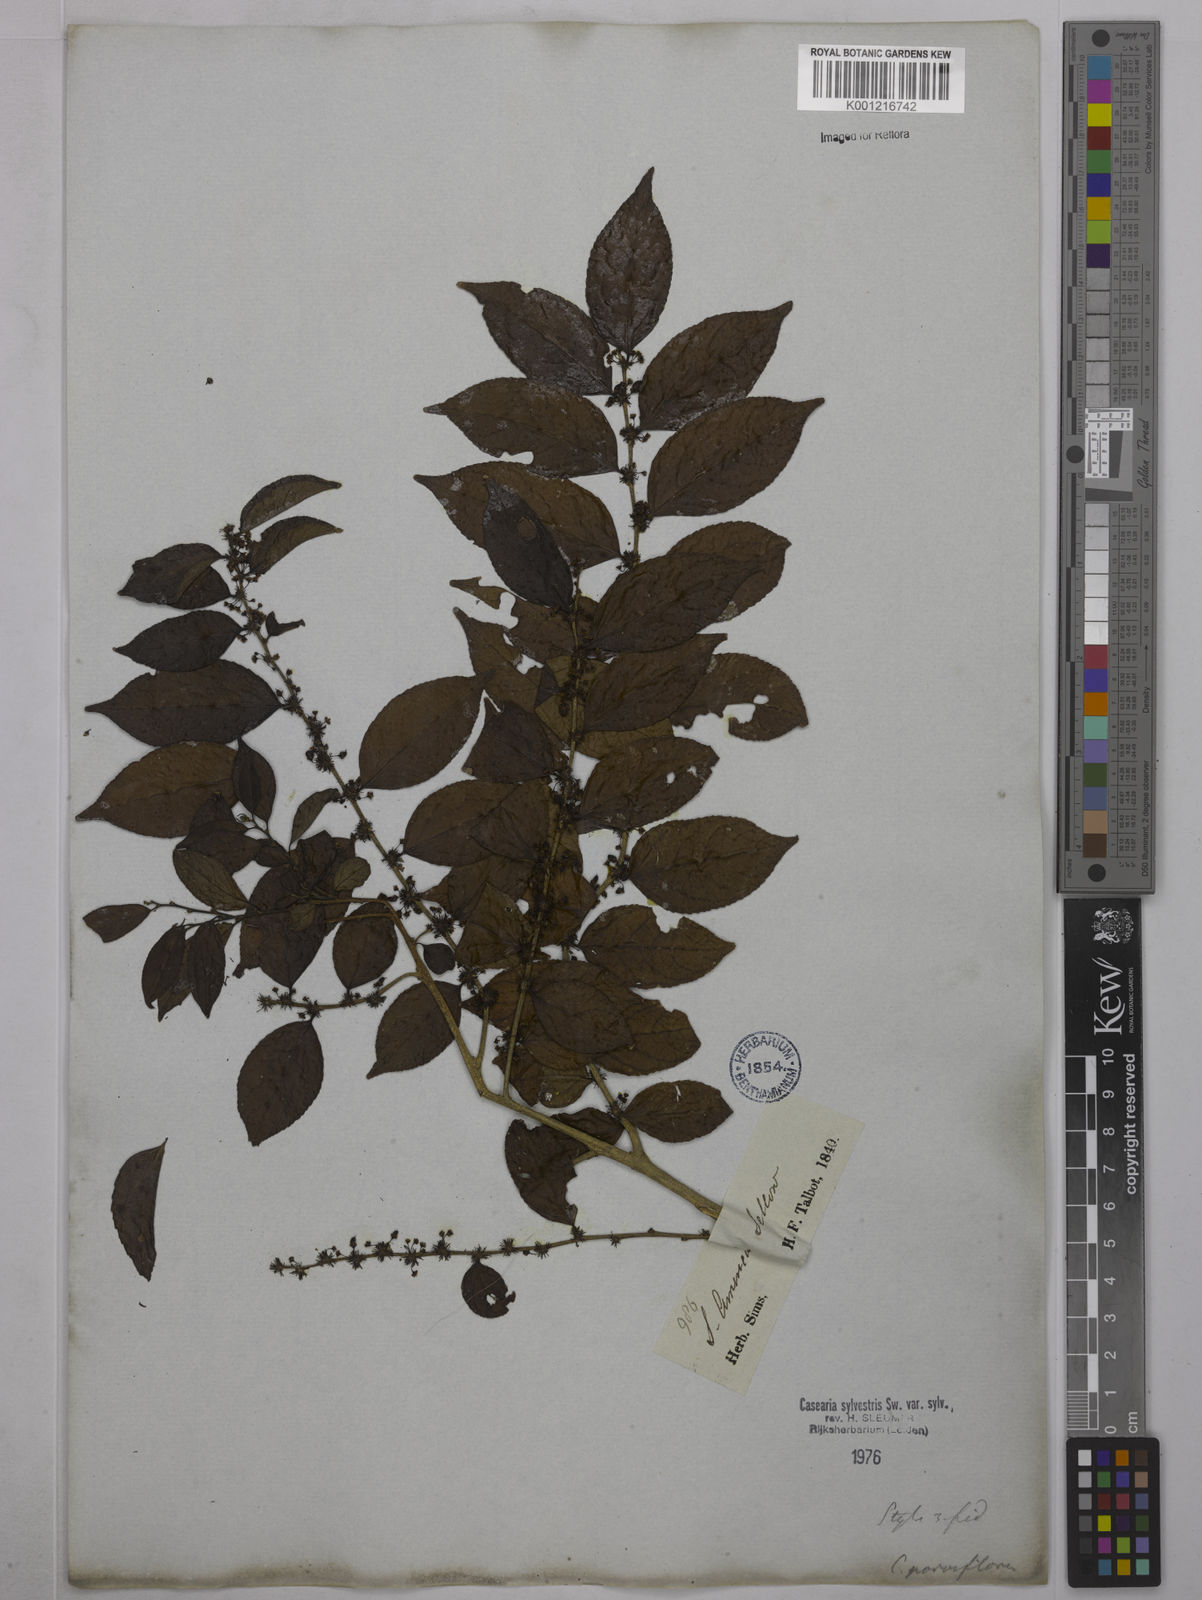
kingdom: Plantae
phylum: Tracheophyta
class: Magnoliopsida
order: Malpighiales
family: Salicaceae
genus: Casearia
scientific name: Casearia sylvestris
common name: Wild sage
